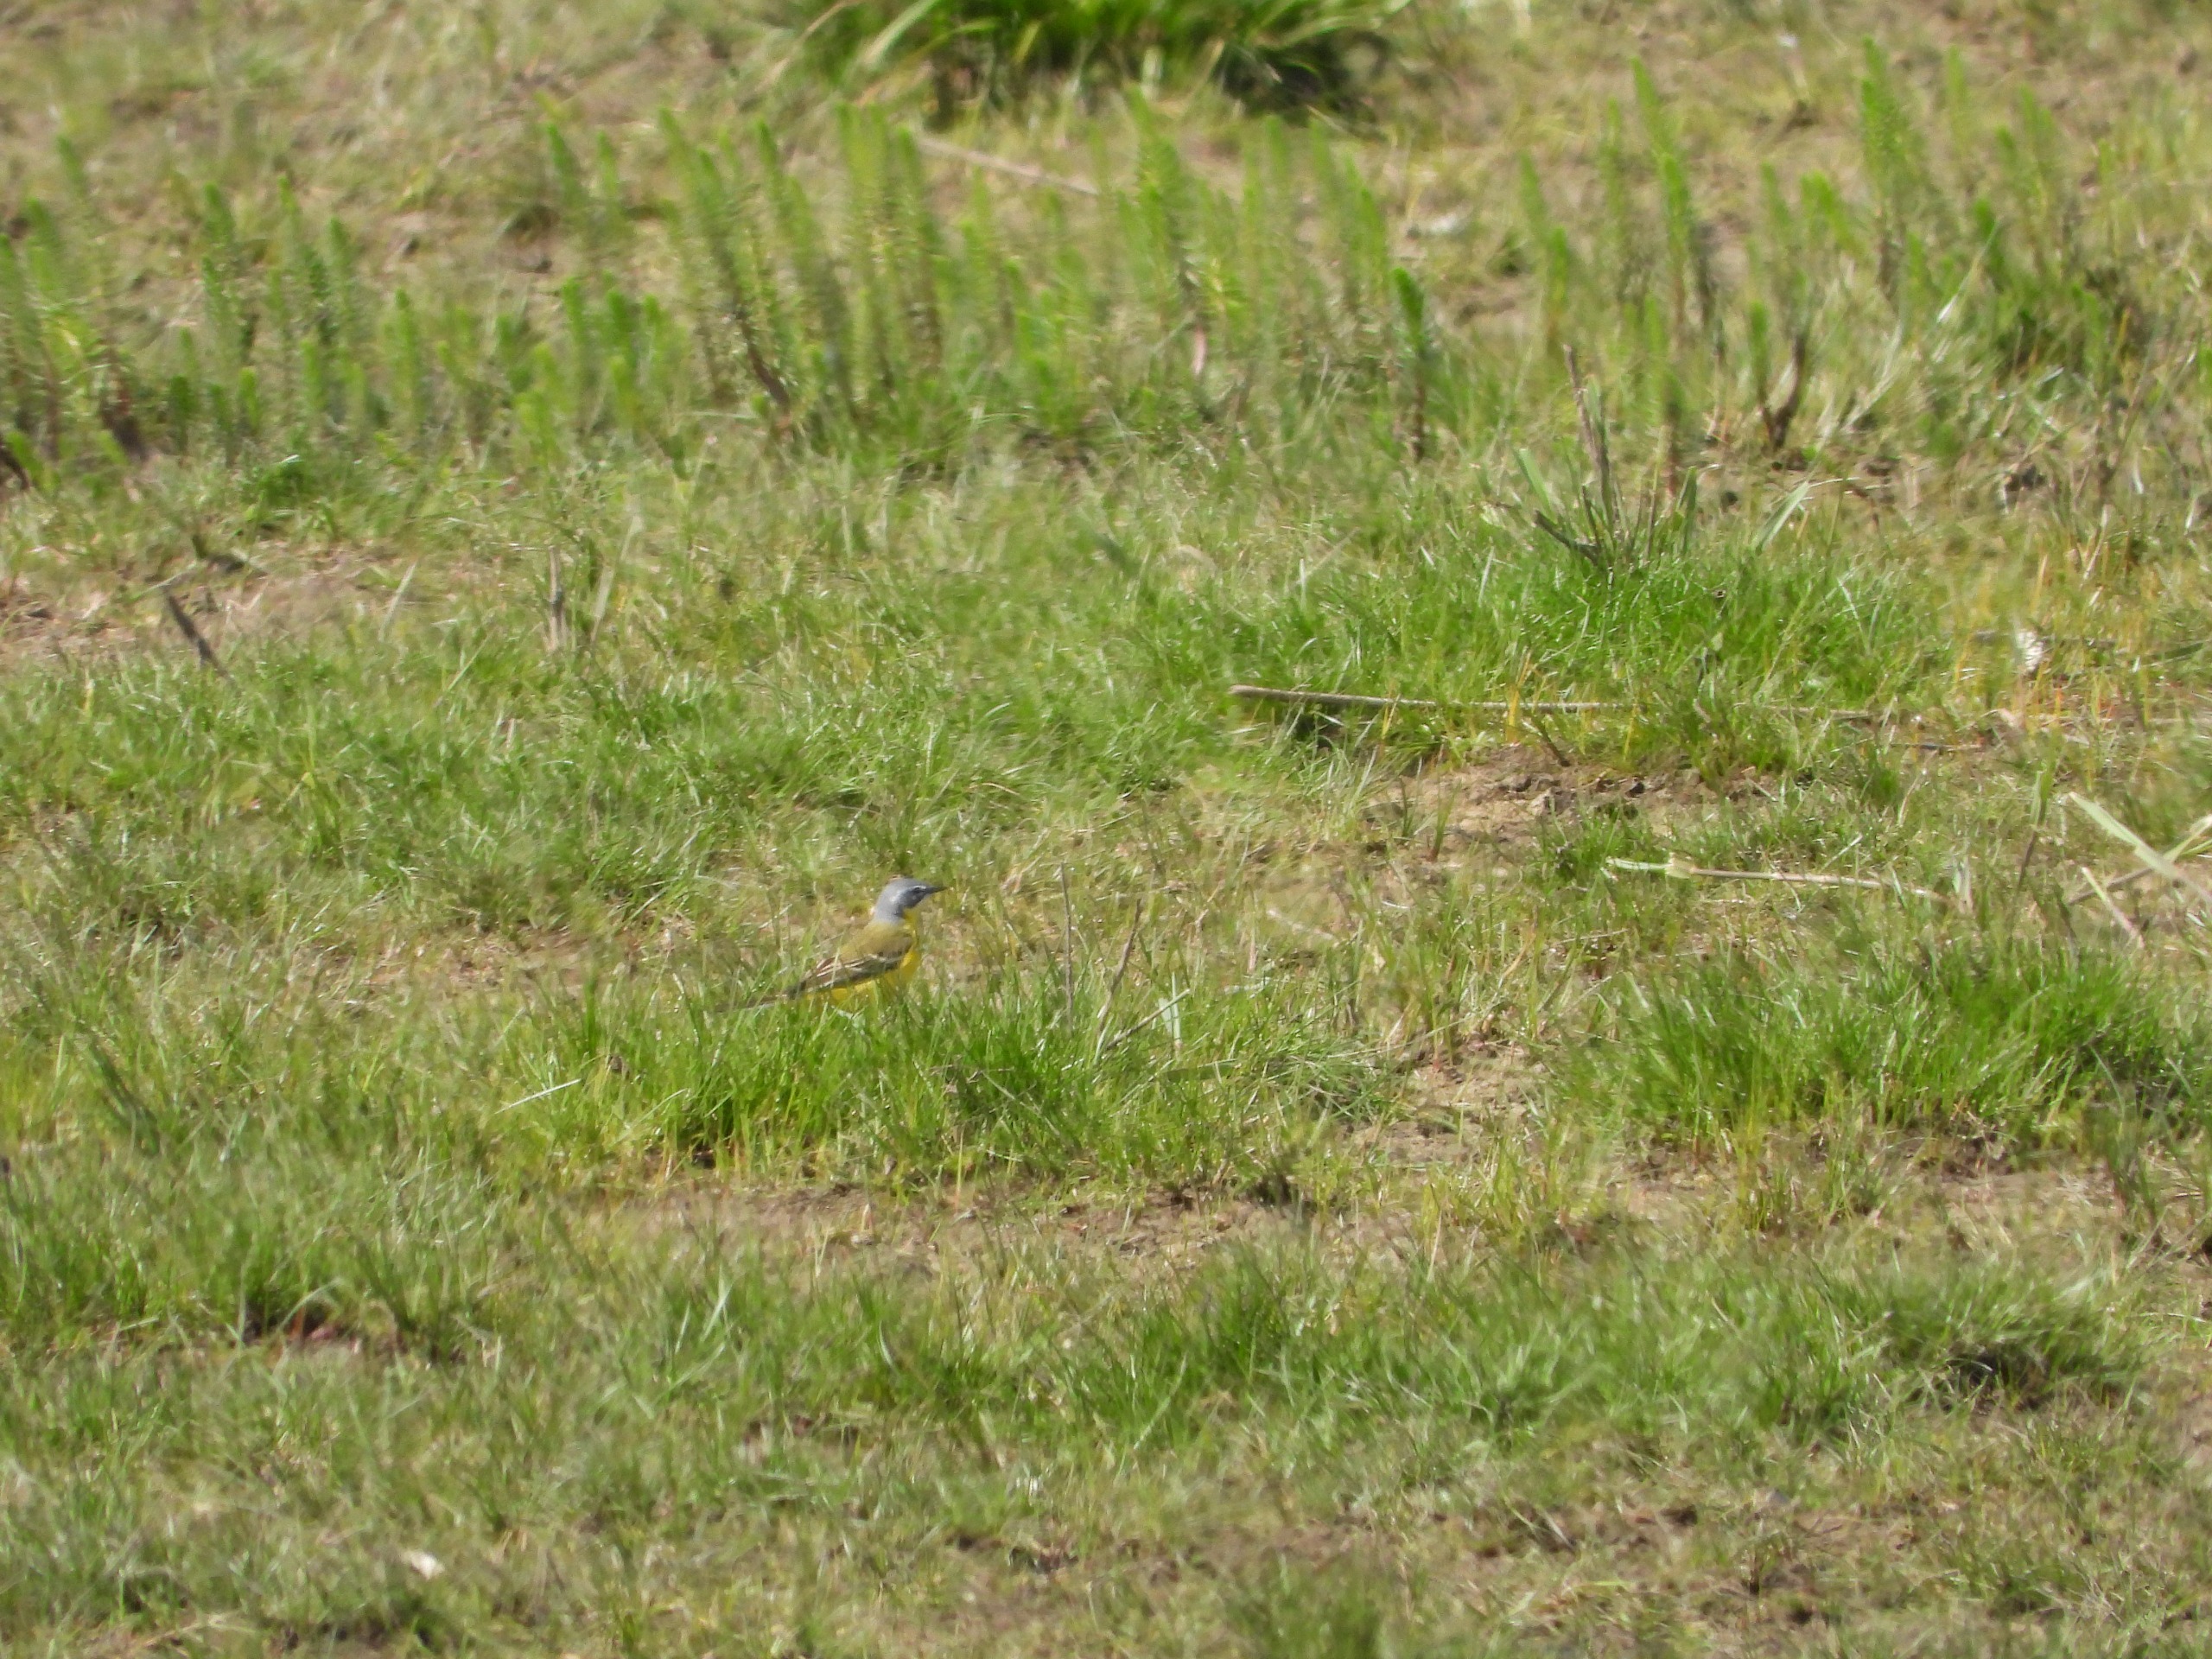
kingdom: Animalia
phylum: Chordata
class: Aves
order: Passeriformes
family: Motacillidae
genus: Motacilla
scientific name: Motacilla flava
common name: Gul vipstjert
